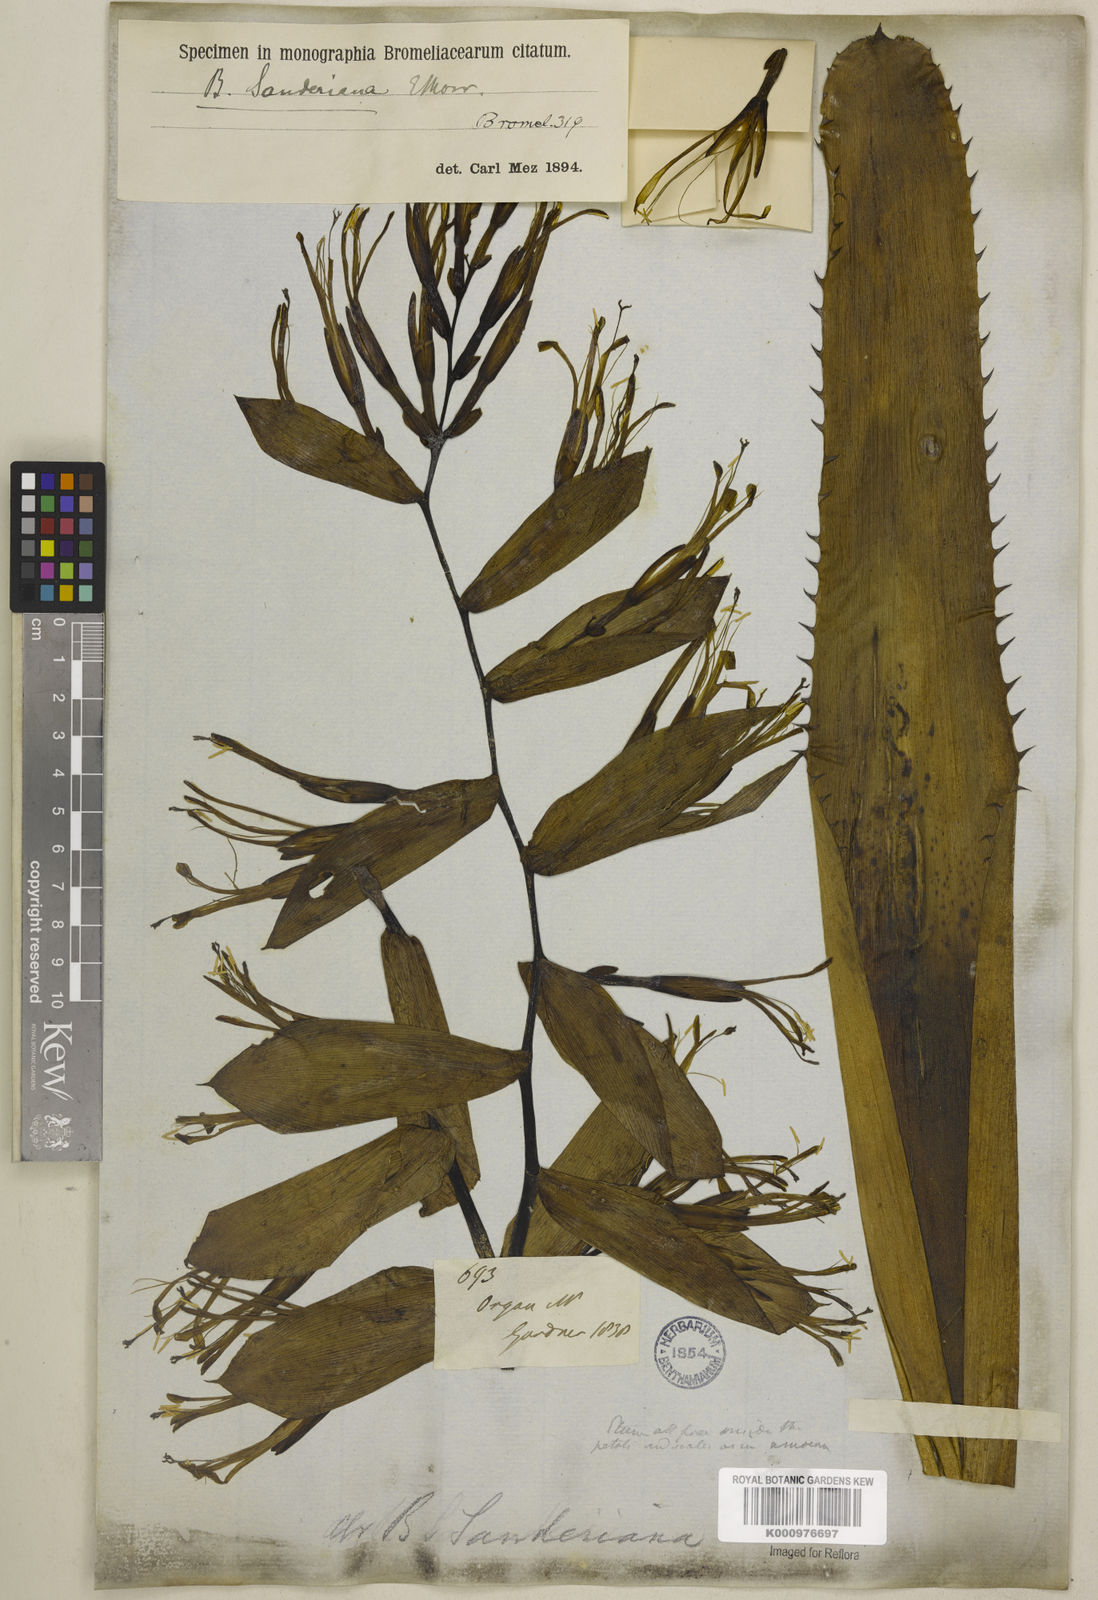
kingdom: Plantae
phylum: Tracheophyta
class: Liliopsida
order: Poales
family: Bromeliaceae
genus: Billbergia
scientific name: Billbergia sanderiana
